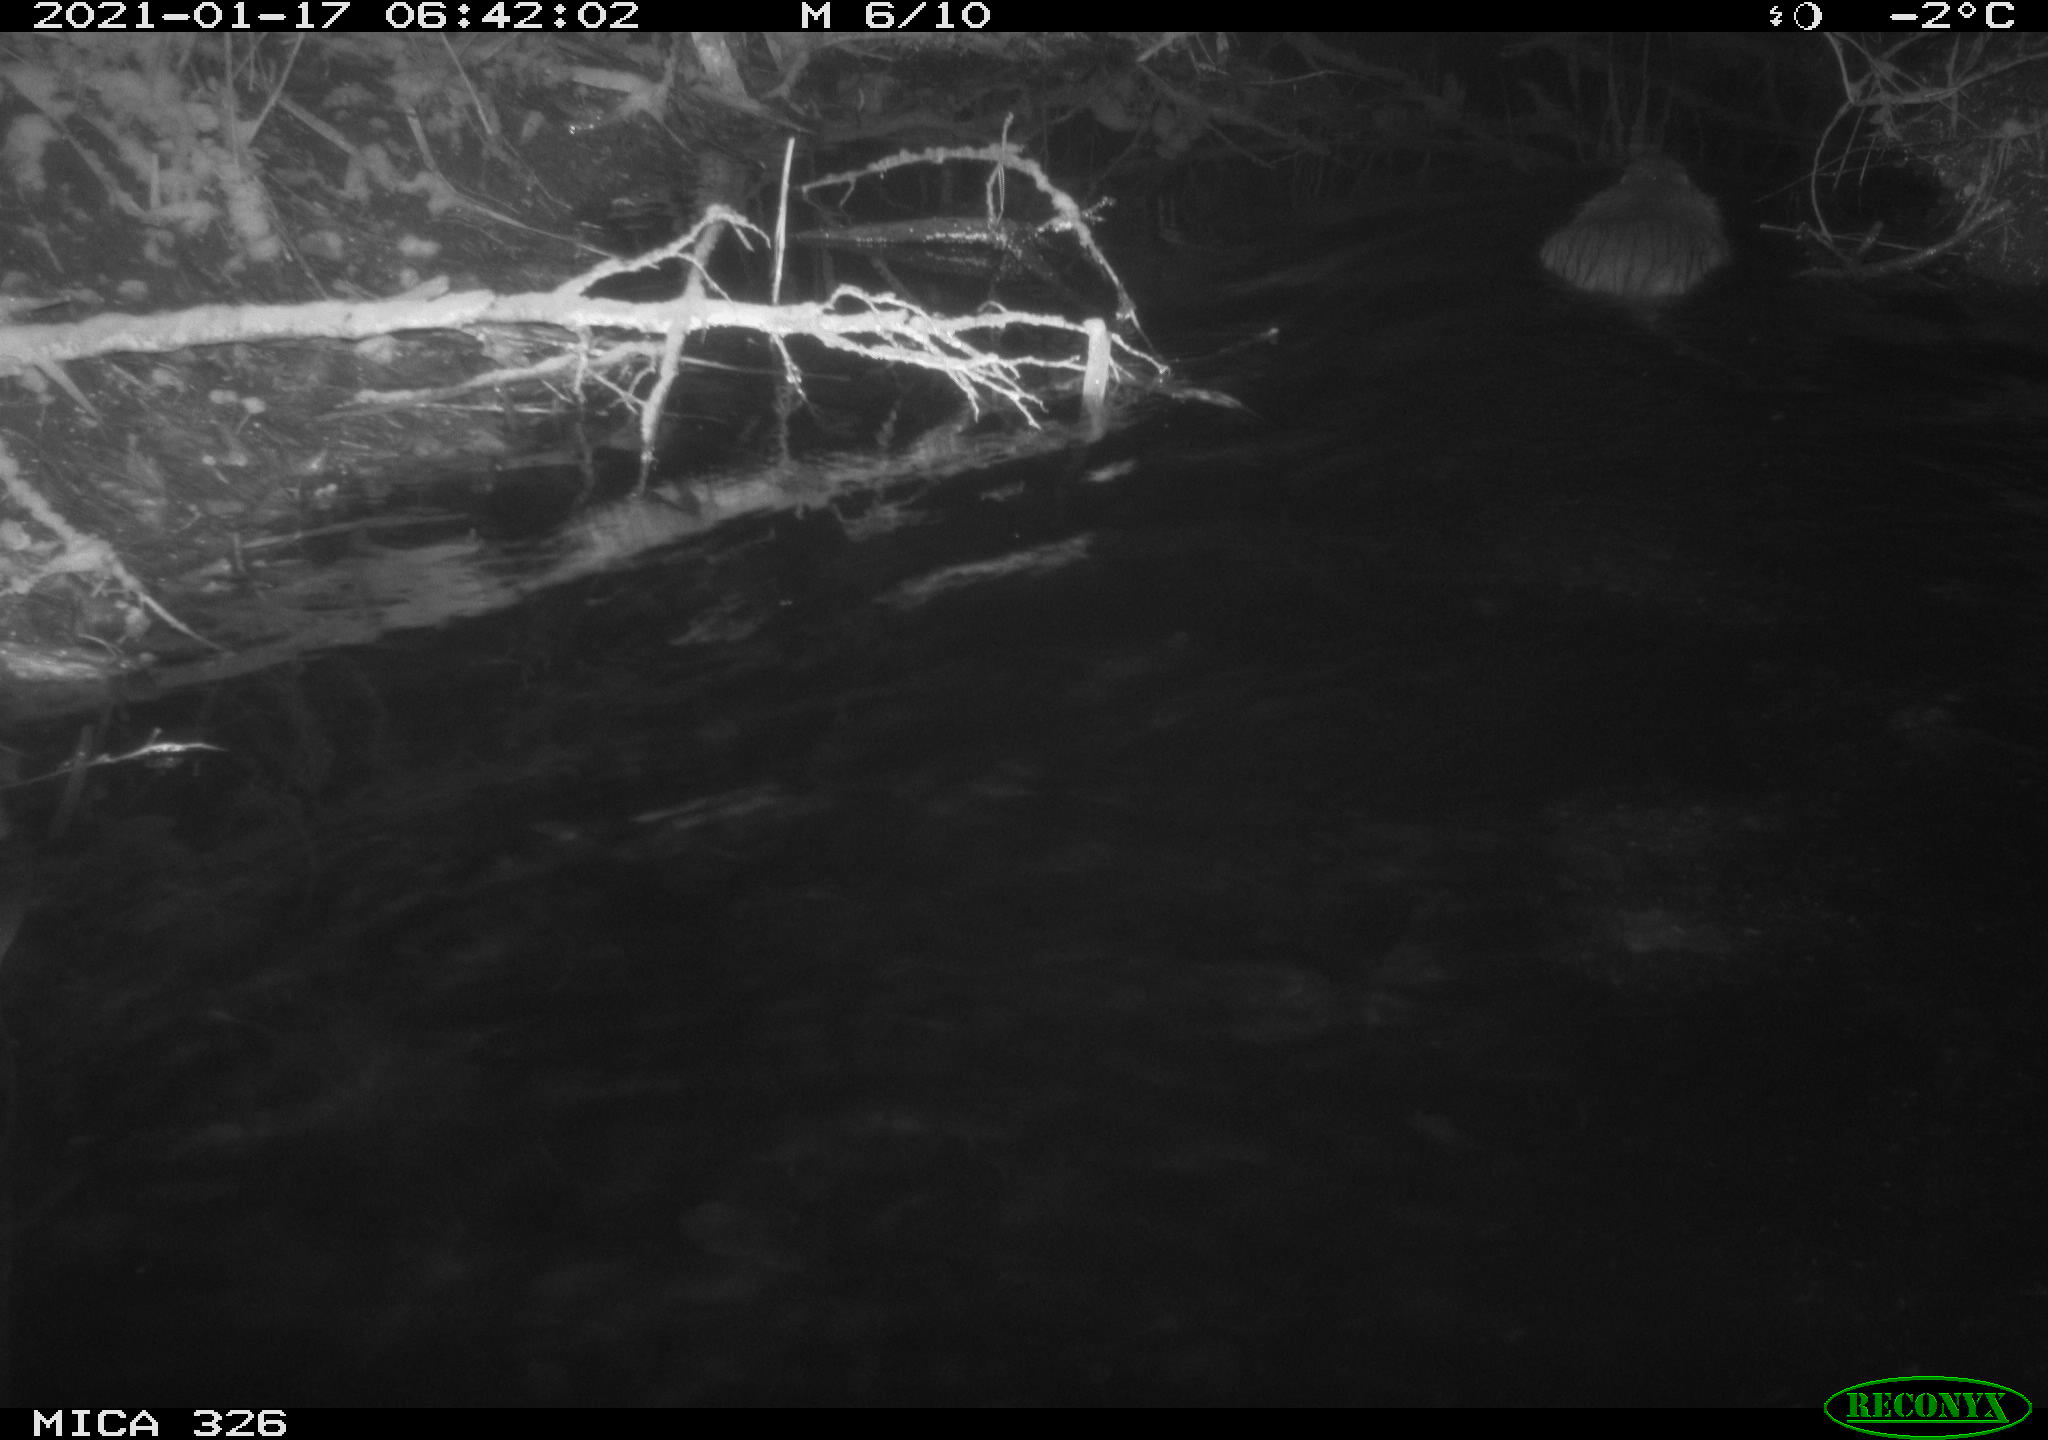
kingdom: Animalia
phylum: Chordata
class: Mammalia
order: Rodentia
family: Myocastoridae
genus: Myocastor
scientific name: Myocastor coypus
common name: Coypu
